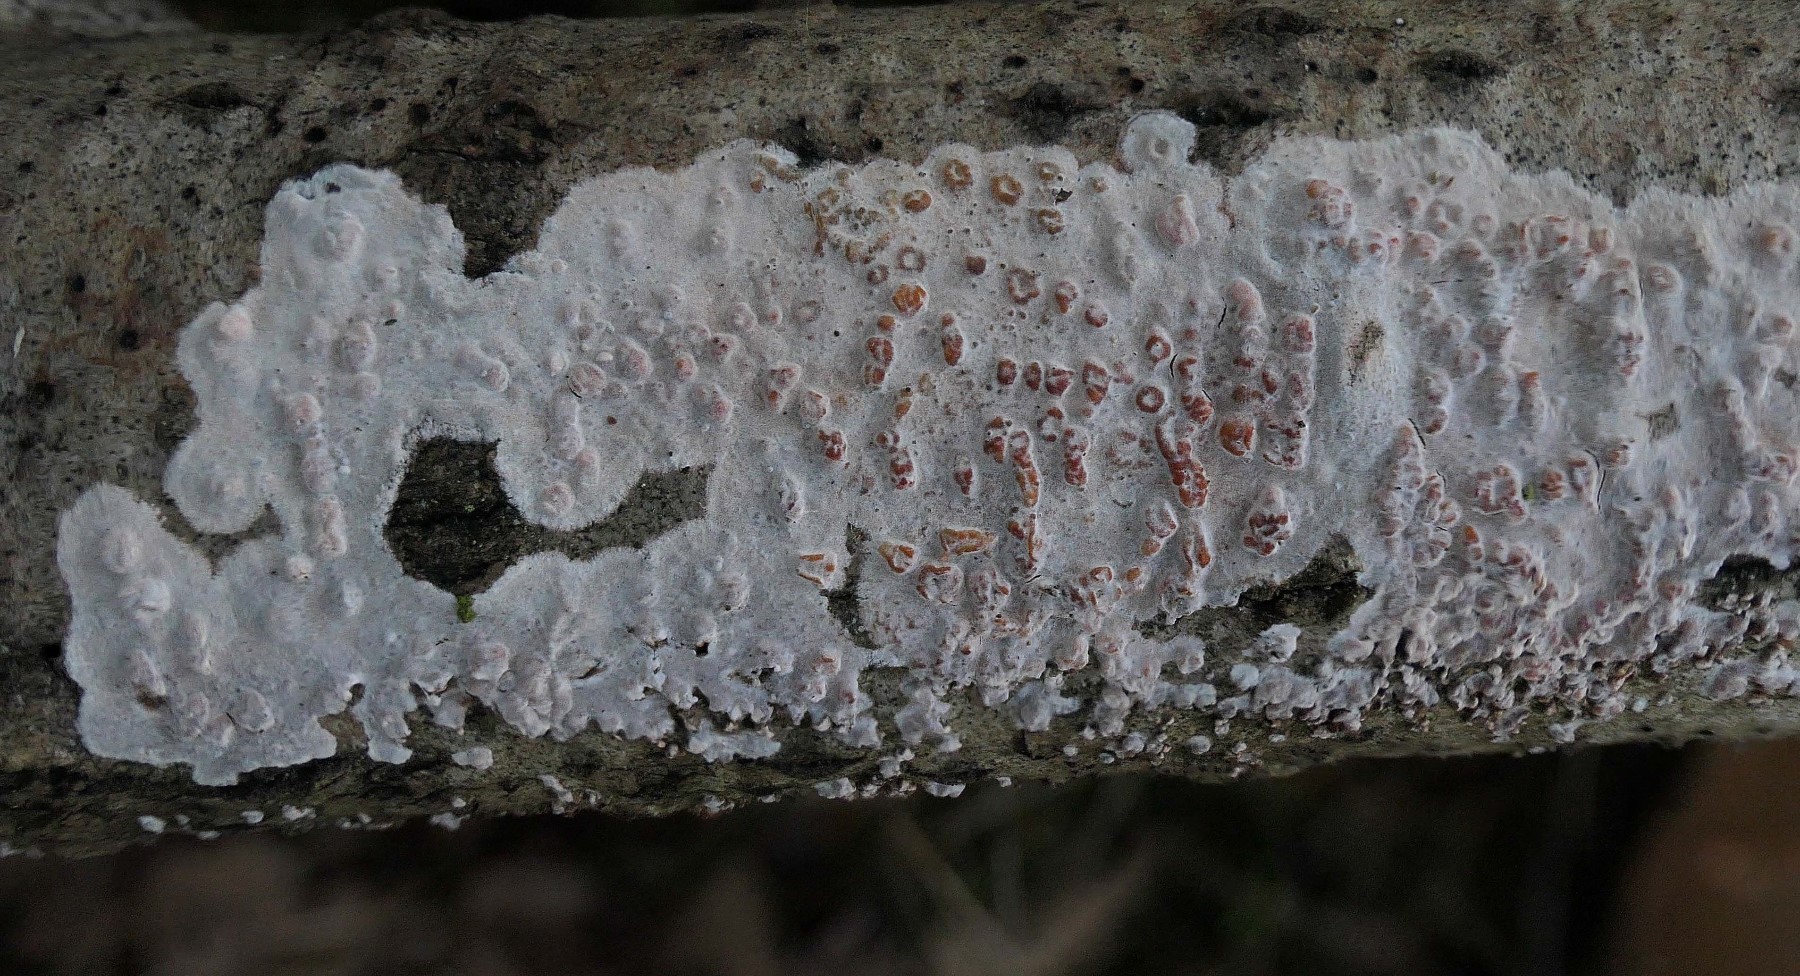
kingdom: Fungi
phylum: Basidiomycota
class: Agaricomycetes
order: Russulales
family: Peniophoraceae
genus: Peniophora
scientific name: Peniophora polygonia
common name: polygon-voksskind
